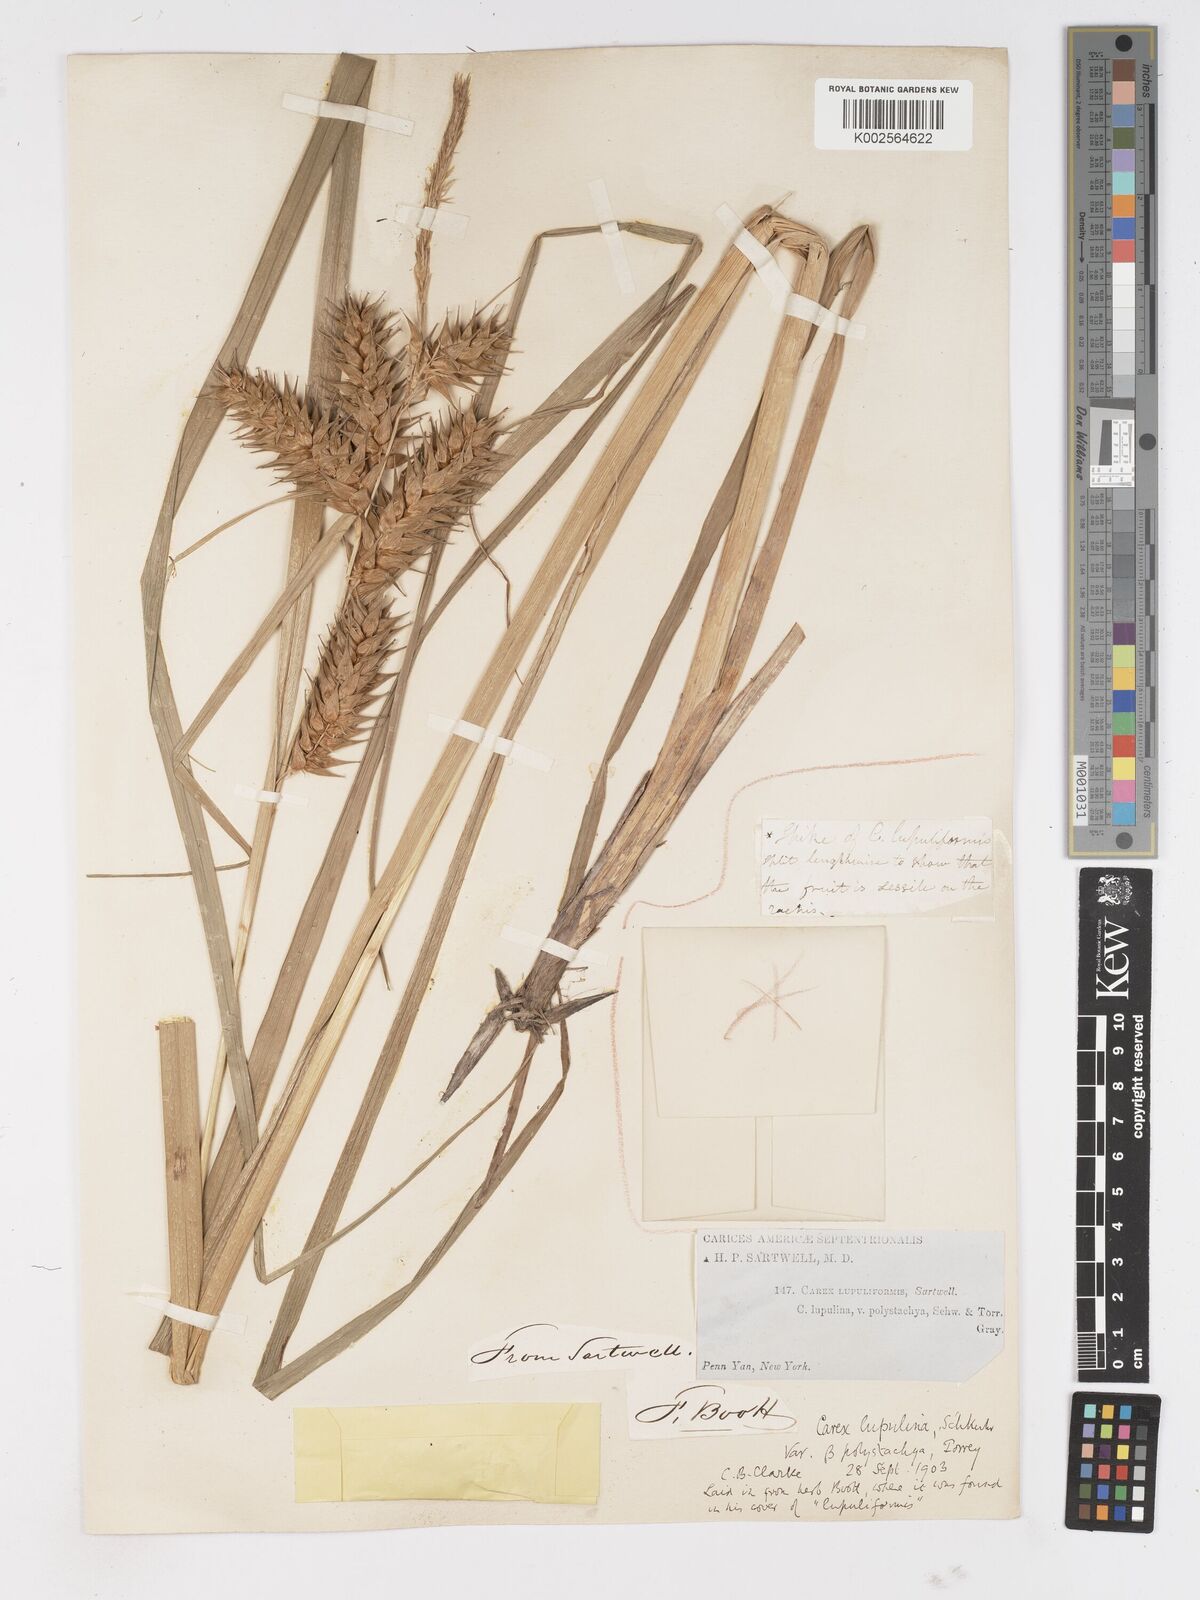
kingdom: Plantae
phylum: Tracheophyta
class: Liliopsida
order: Poales
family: Cyperaceae
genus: Carex
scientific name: Carex lupuliformis
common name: False hop sedge
